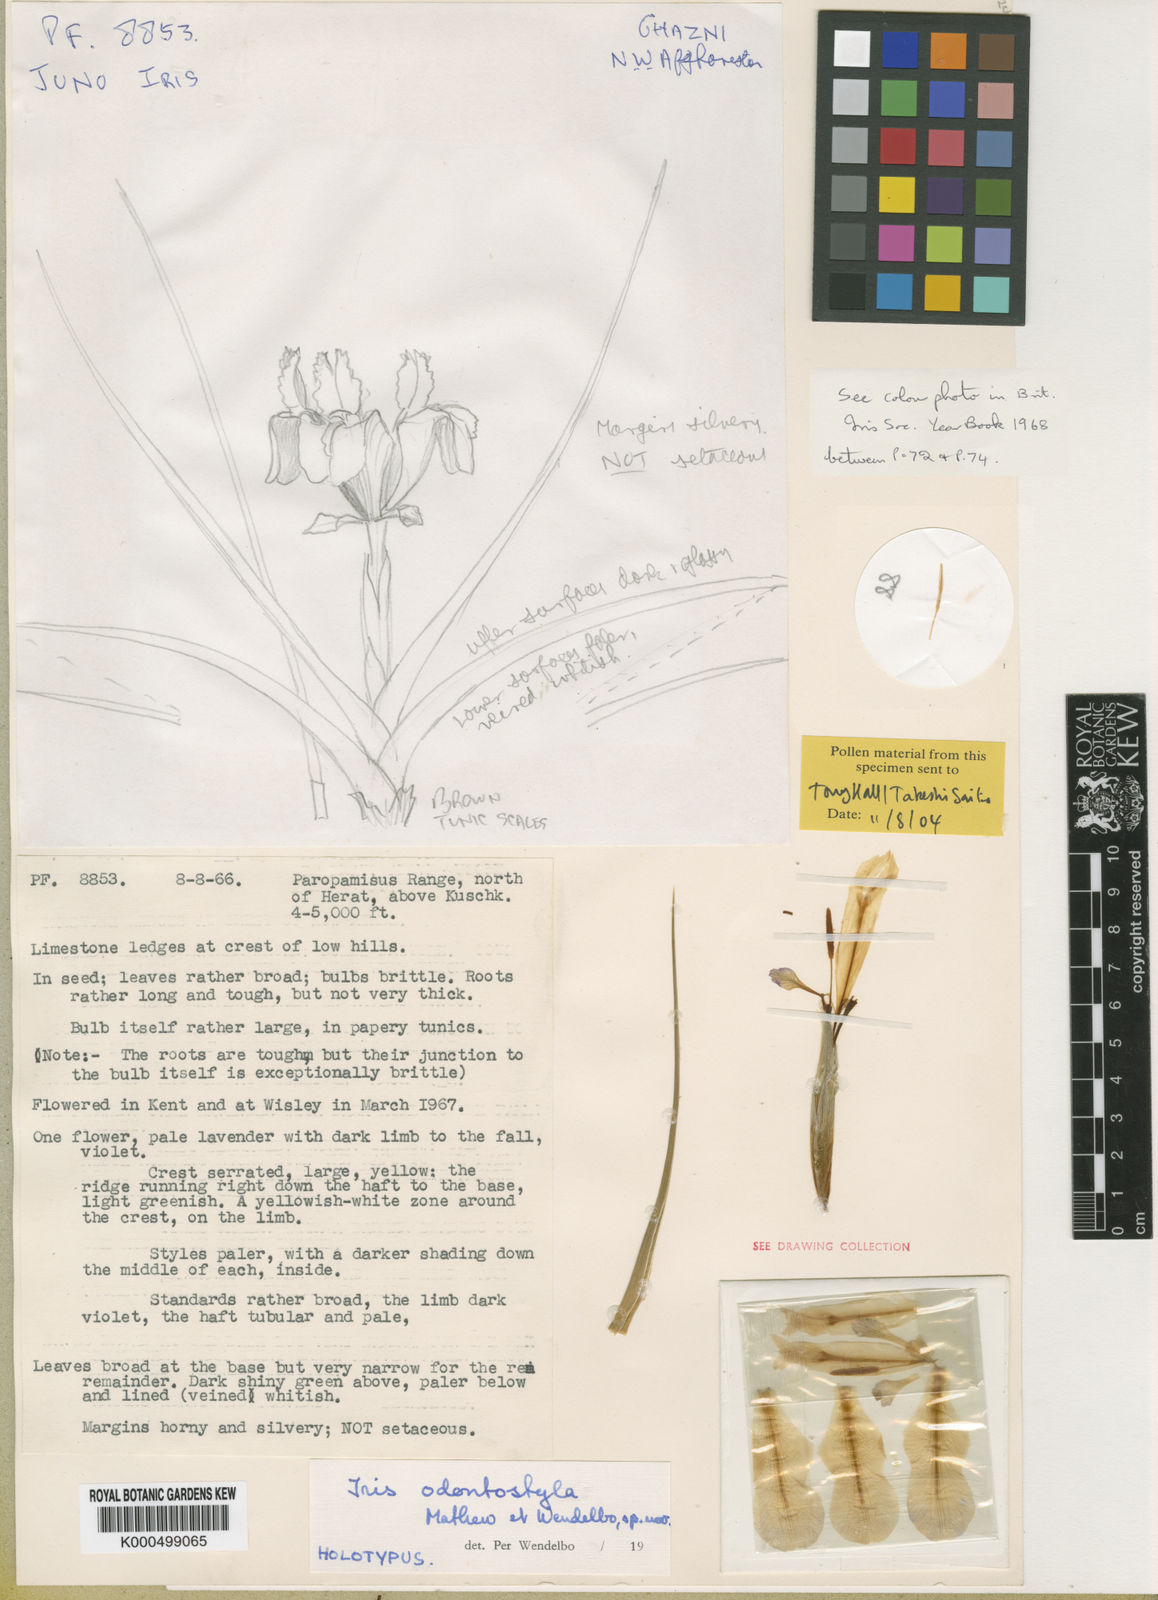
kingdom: Plantae
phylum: Tracheophyta
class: Liliopsida
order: Asparagales
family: Iridaceae
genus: Iris
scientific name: Iris odontostyla
